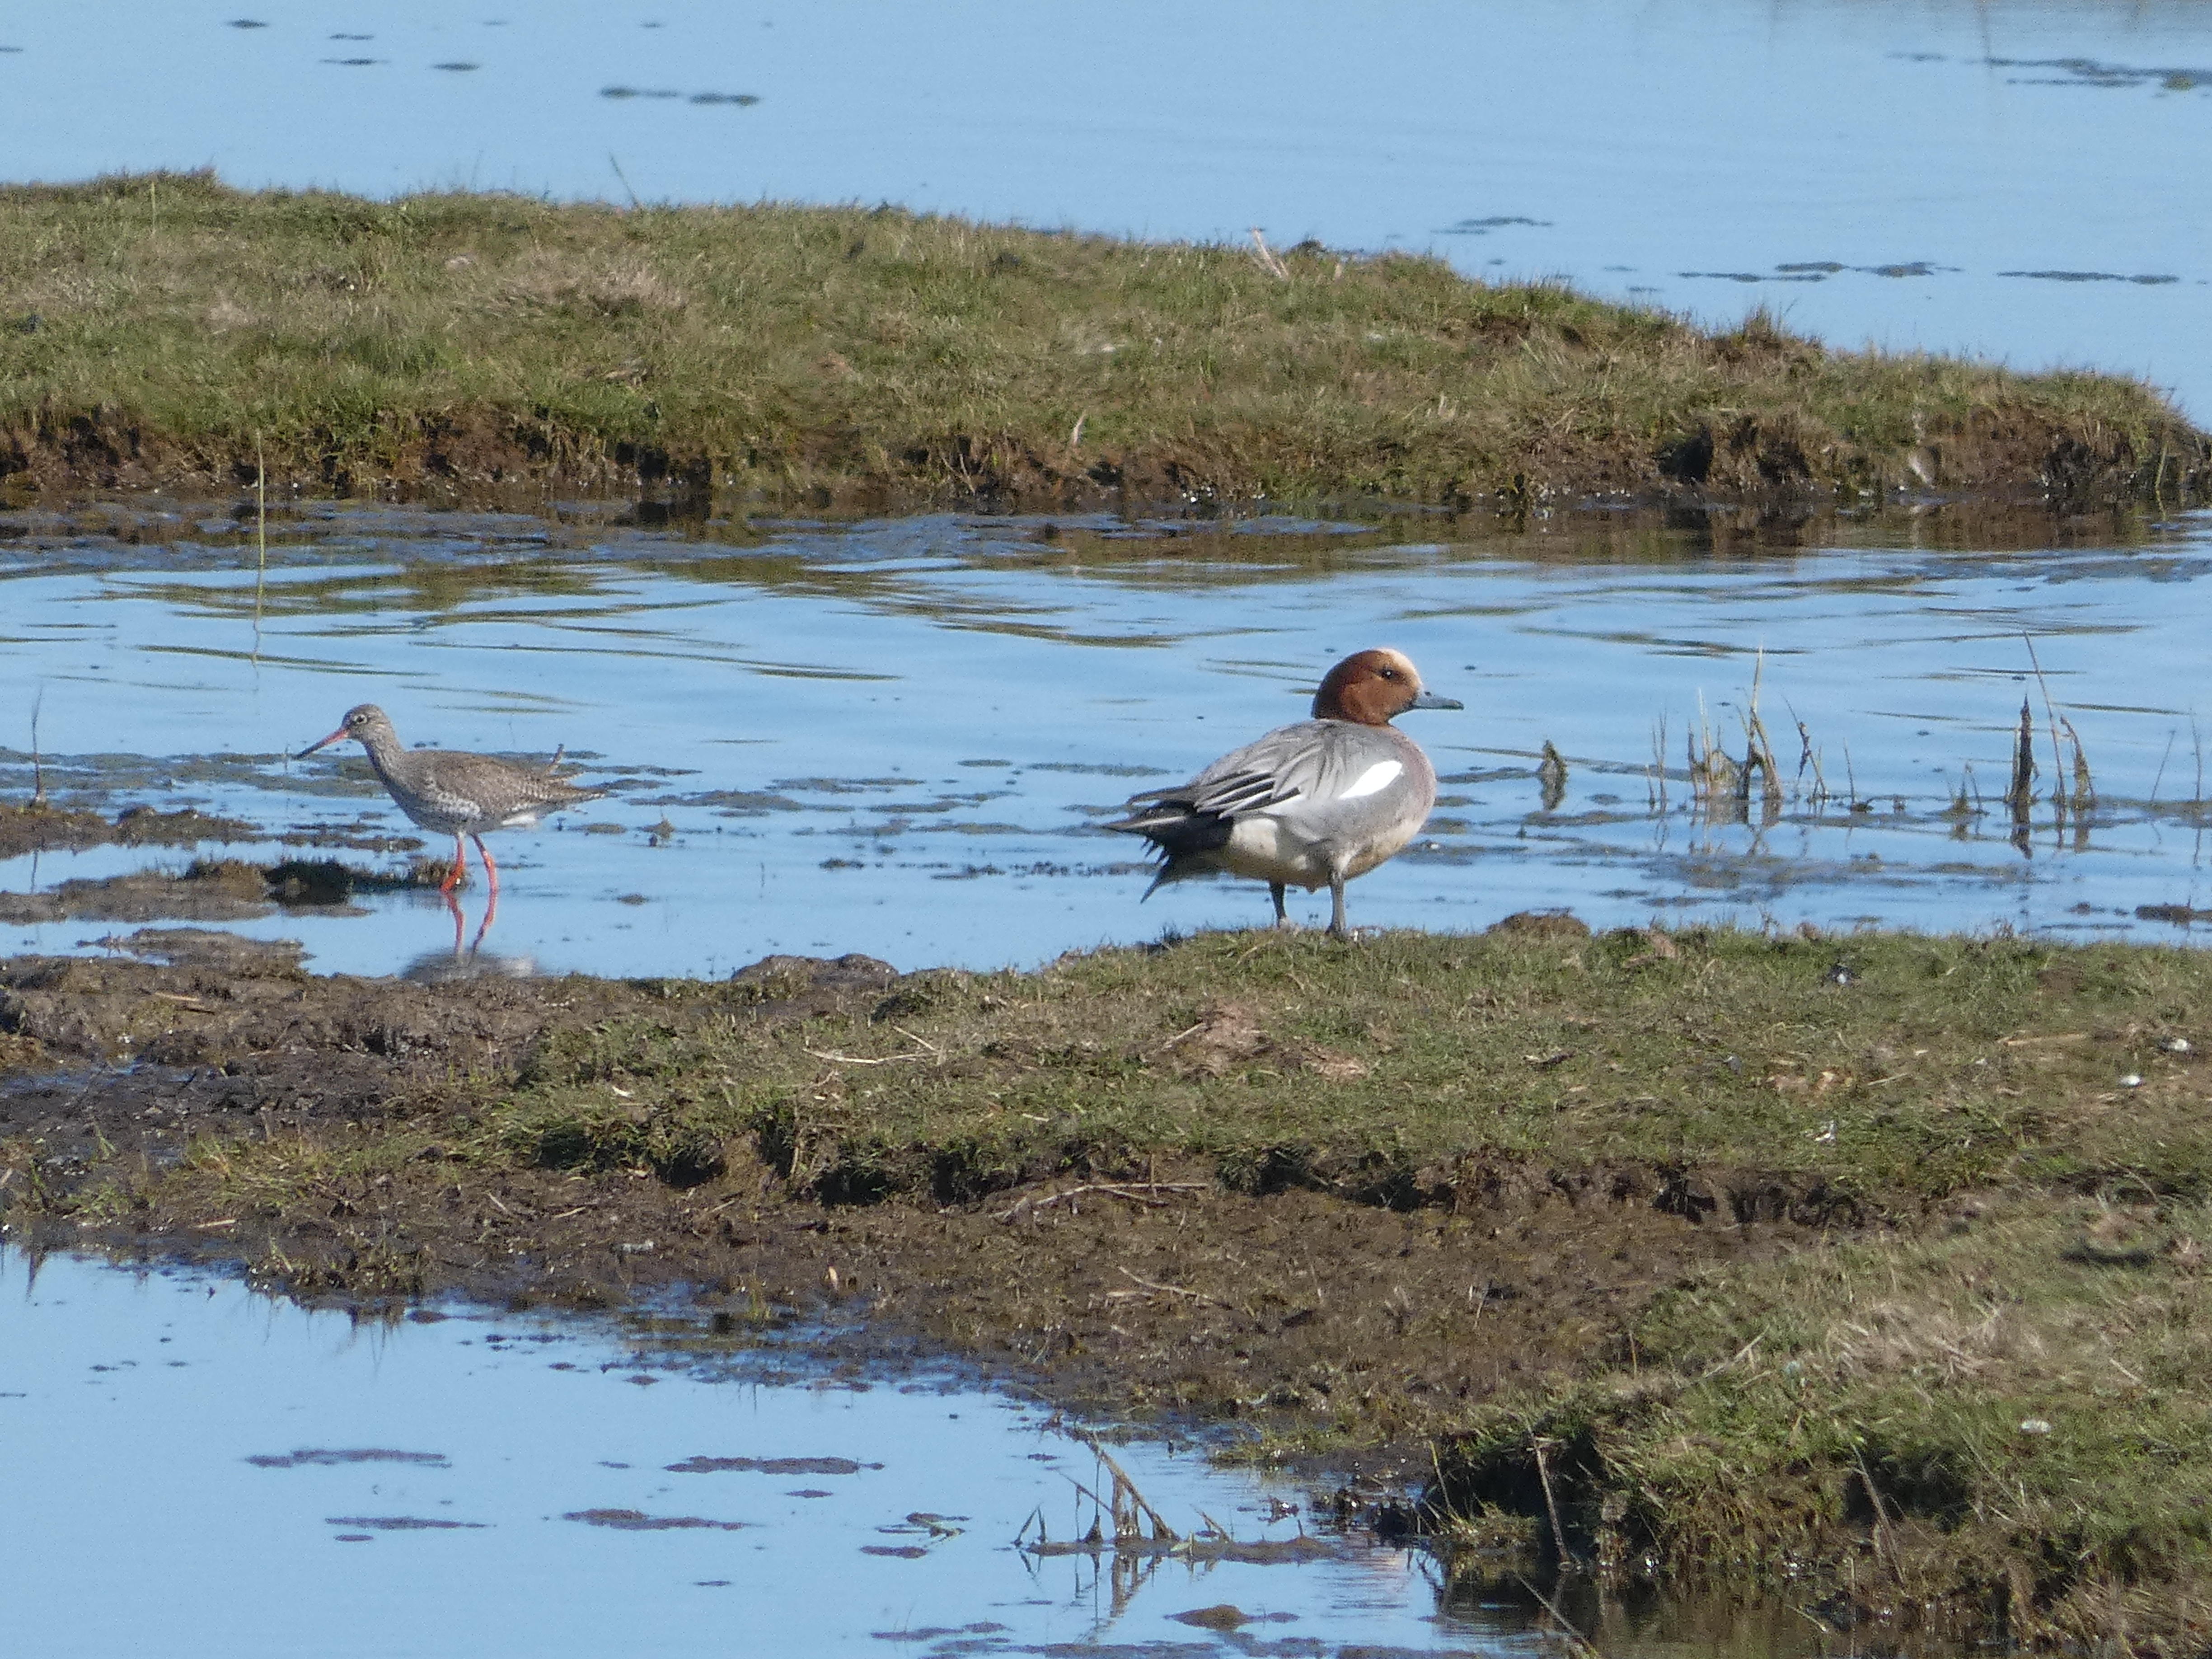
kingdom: Animalia
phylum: Chordata
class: Aves
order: Anseriformes
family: Anatidae
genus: Mareca
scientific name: Mareca penelope
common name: Pibeand
